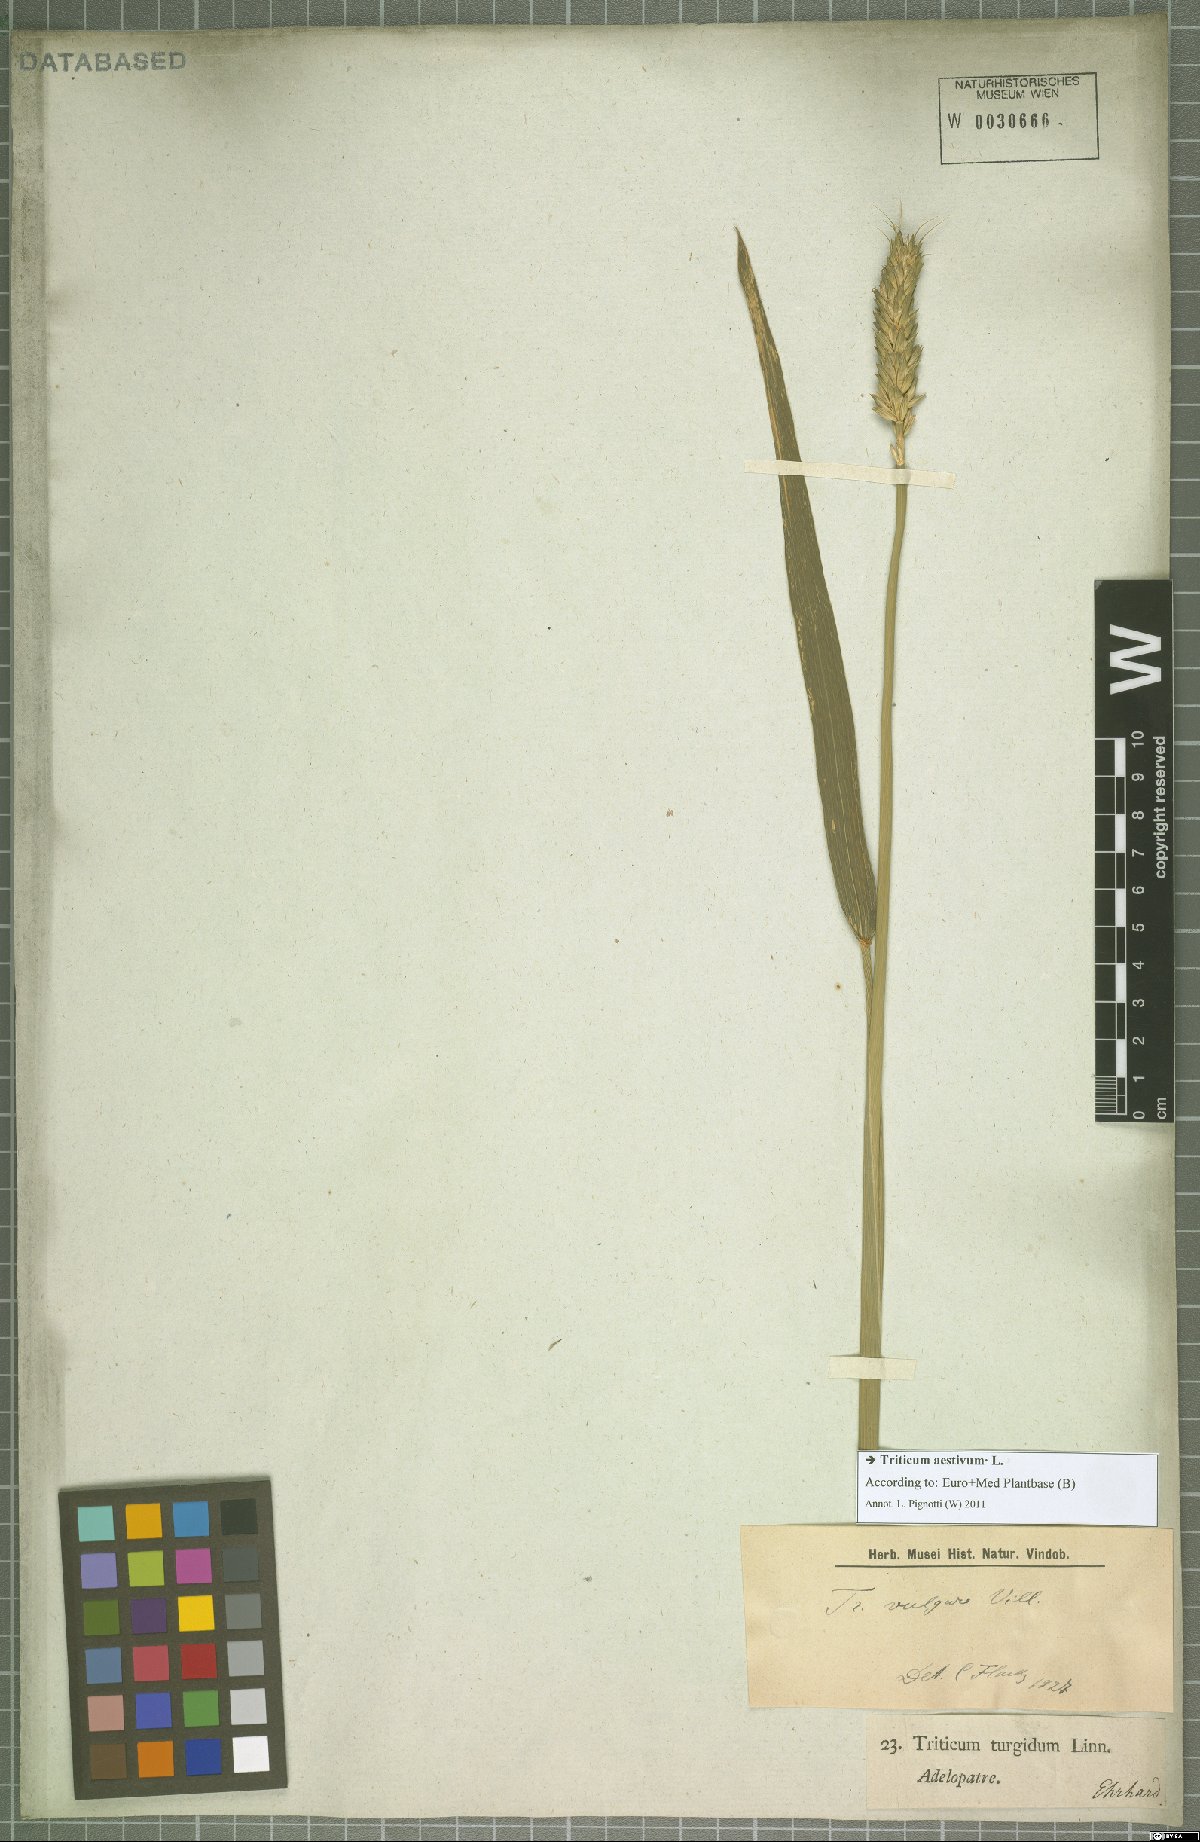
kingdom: Plantae
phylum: Tracheophyta
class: Liliopsida
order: Poales
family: Poaceae
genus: Triticum
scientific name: Triticum aestivum
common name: Common wheat
